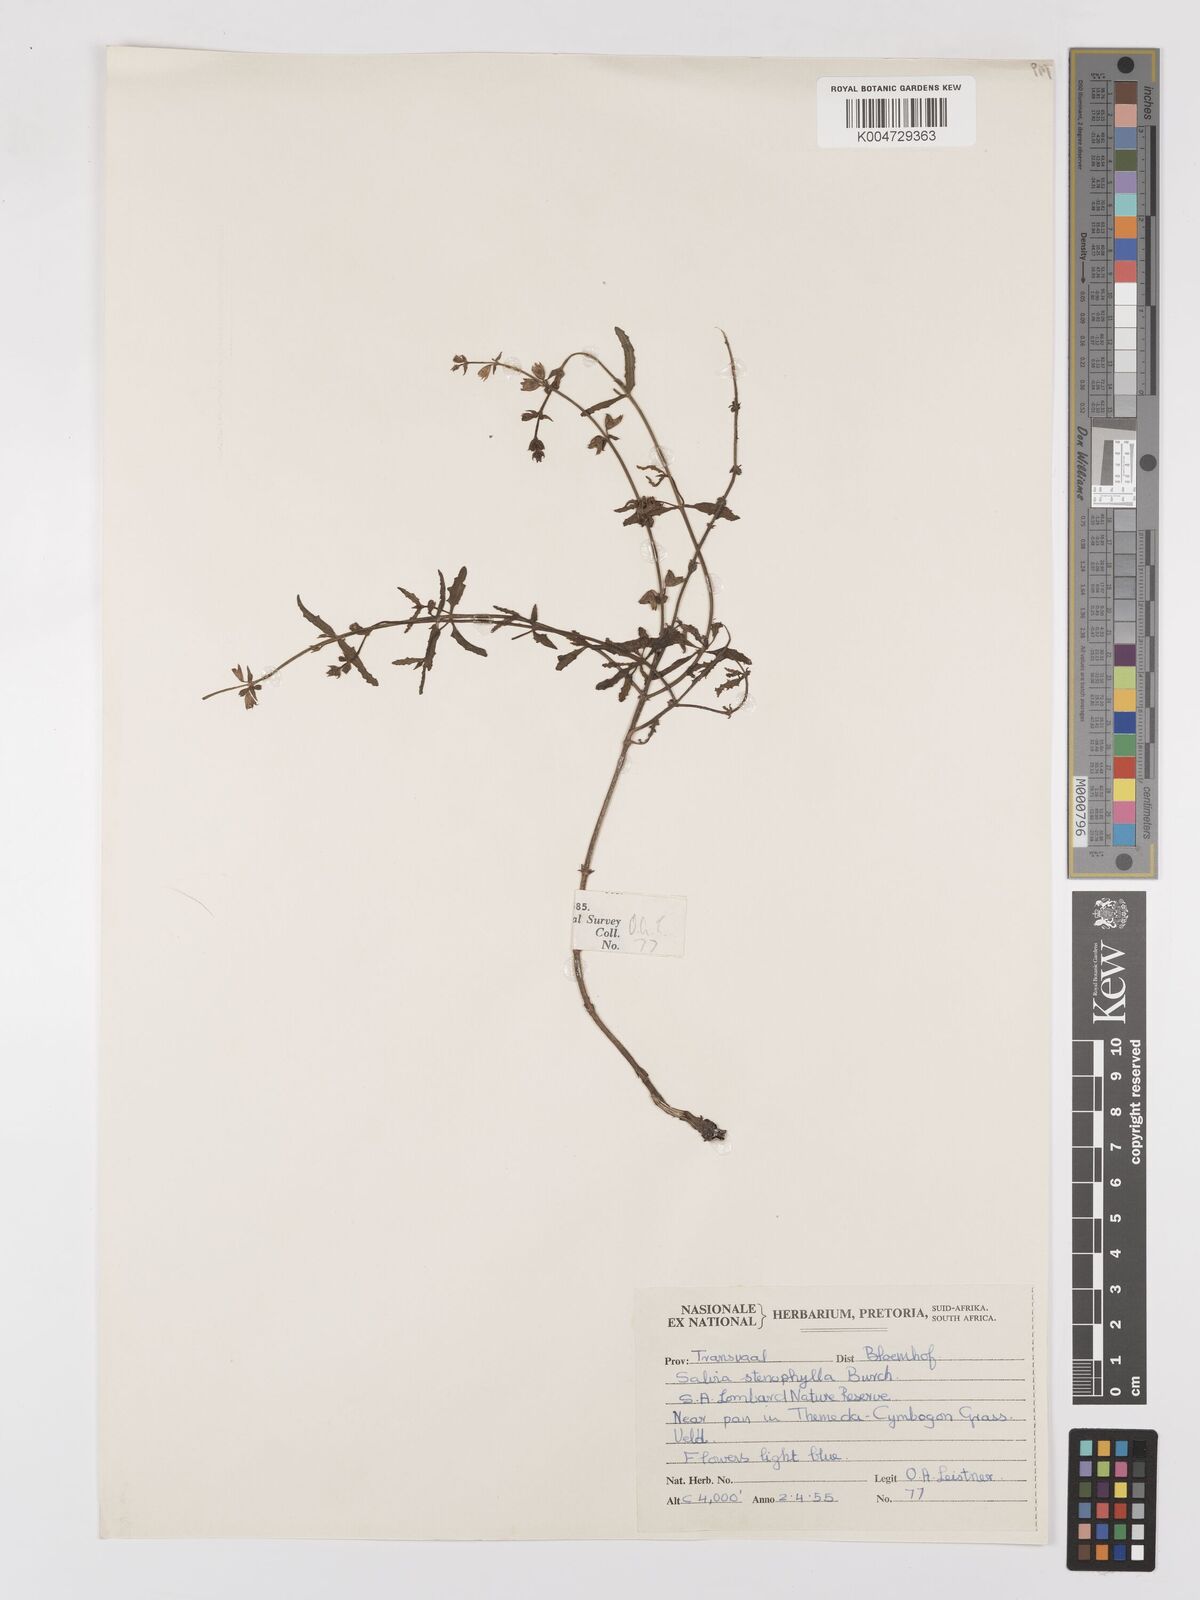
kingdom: Plantae
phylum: Tracheophyta
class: Magnoliopsida
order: Lamiales
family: Lamiaceae
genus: Salvia
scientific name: Salvia stenophylla
